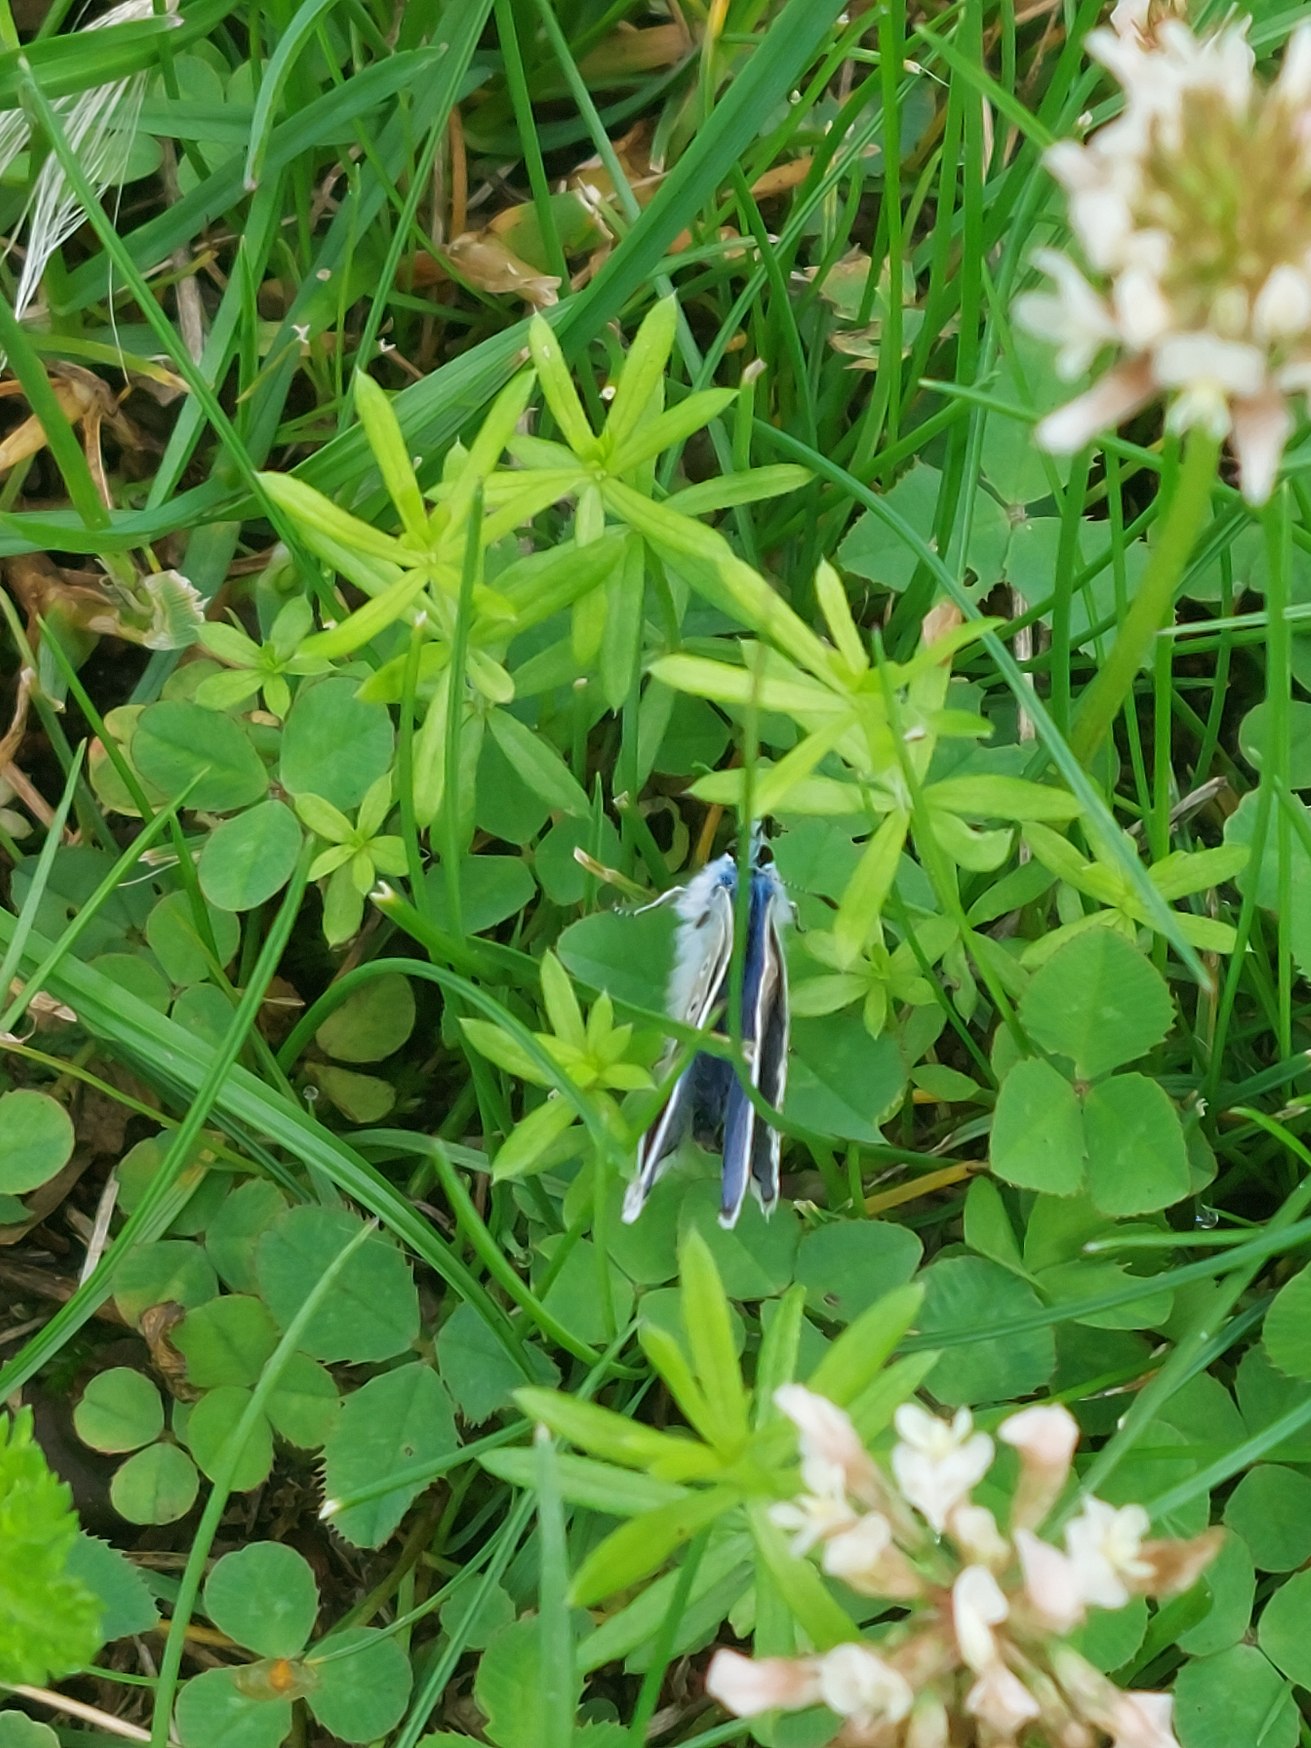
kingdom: Animalia
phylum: Arthropoda
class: Insecta
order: Lepidoptera
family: Lycaenidae
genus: Polyommatus
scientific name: Polyommatus icarus
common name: Almindelig blåfugl
